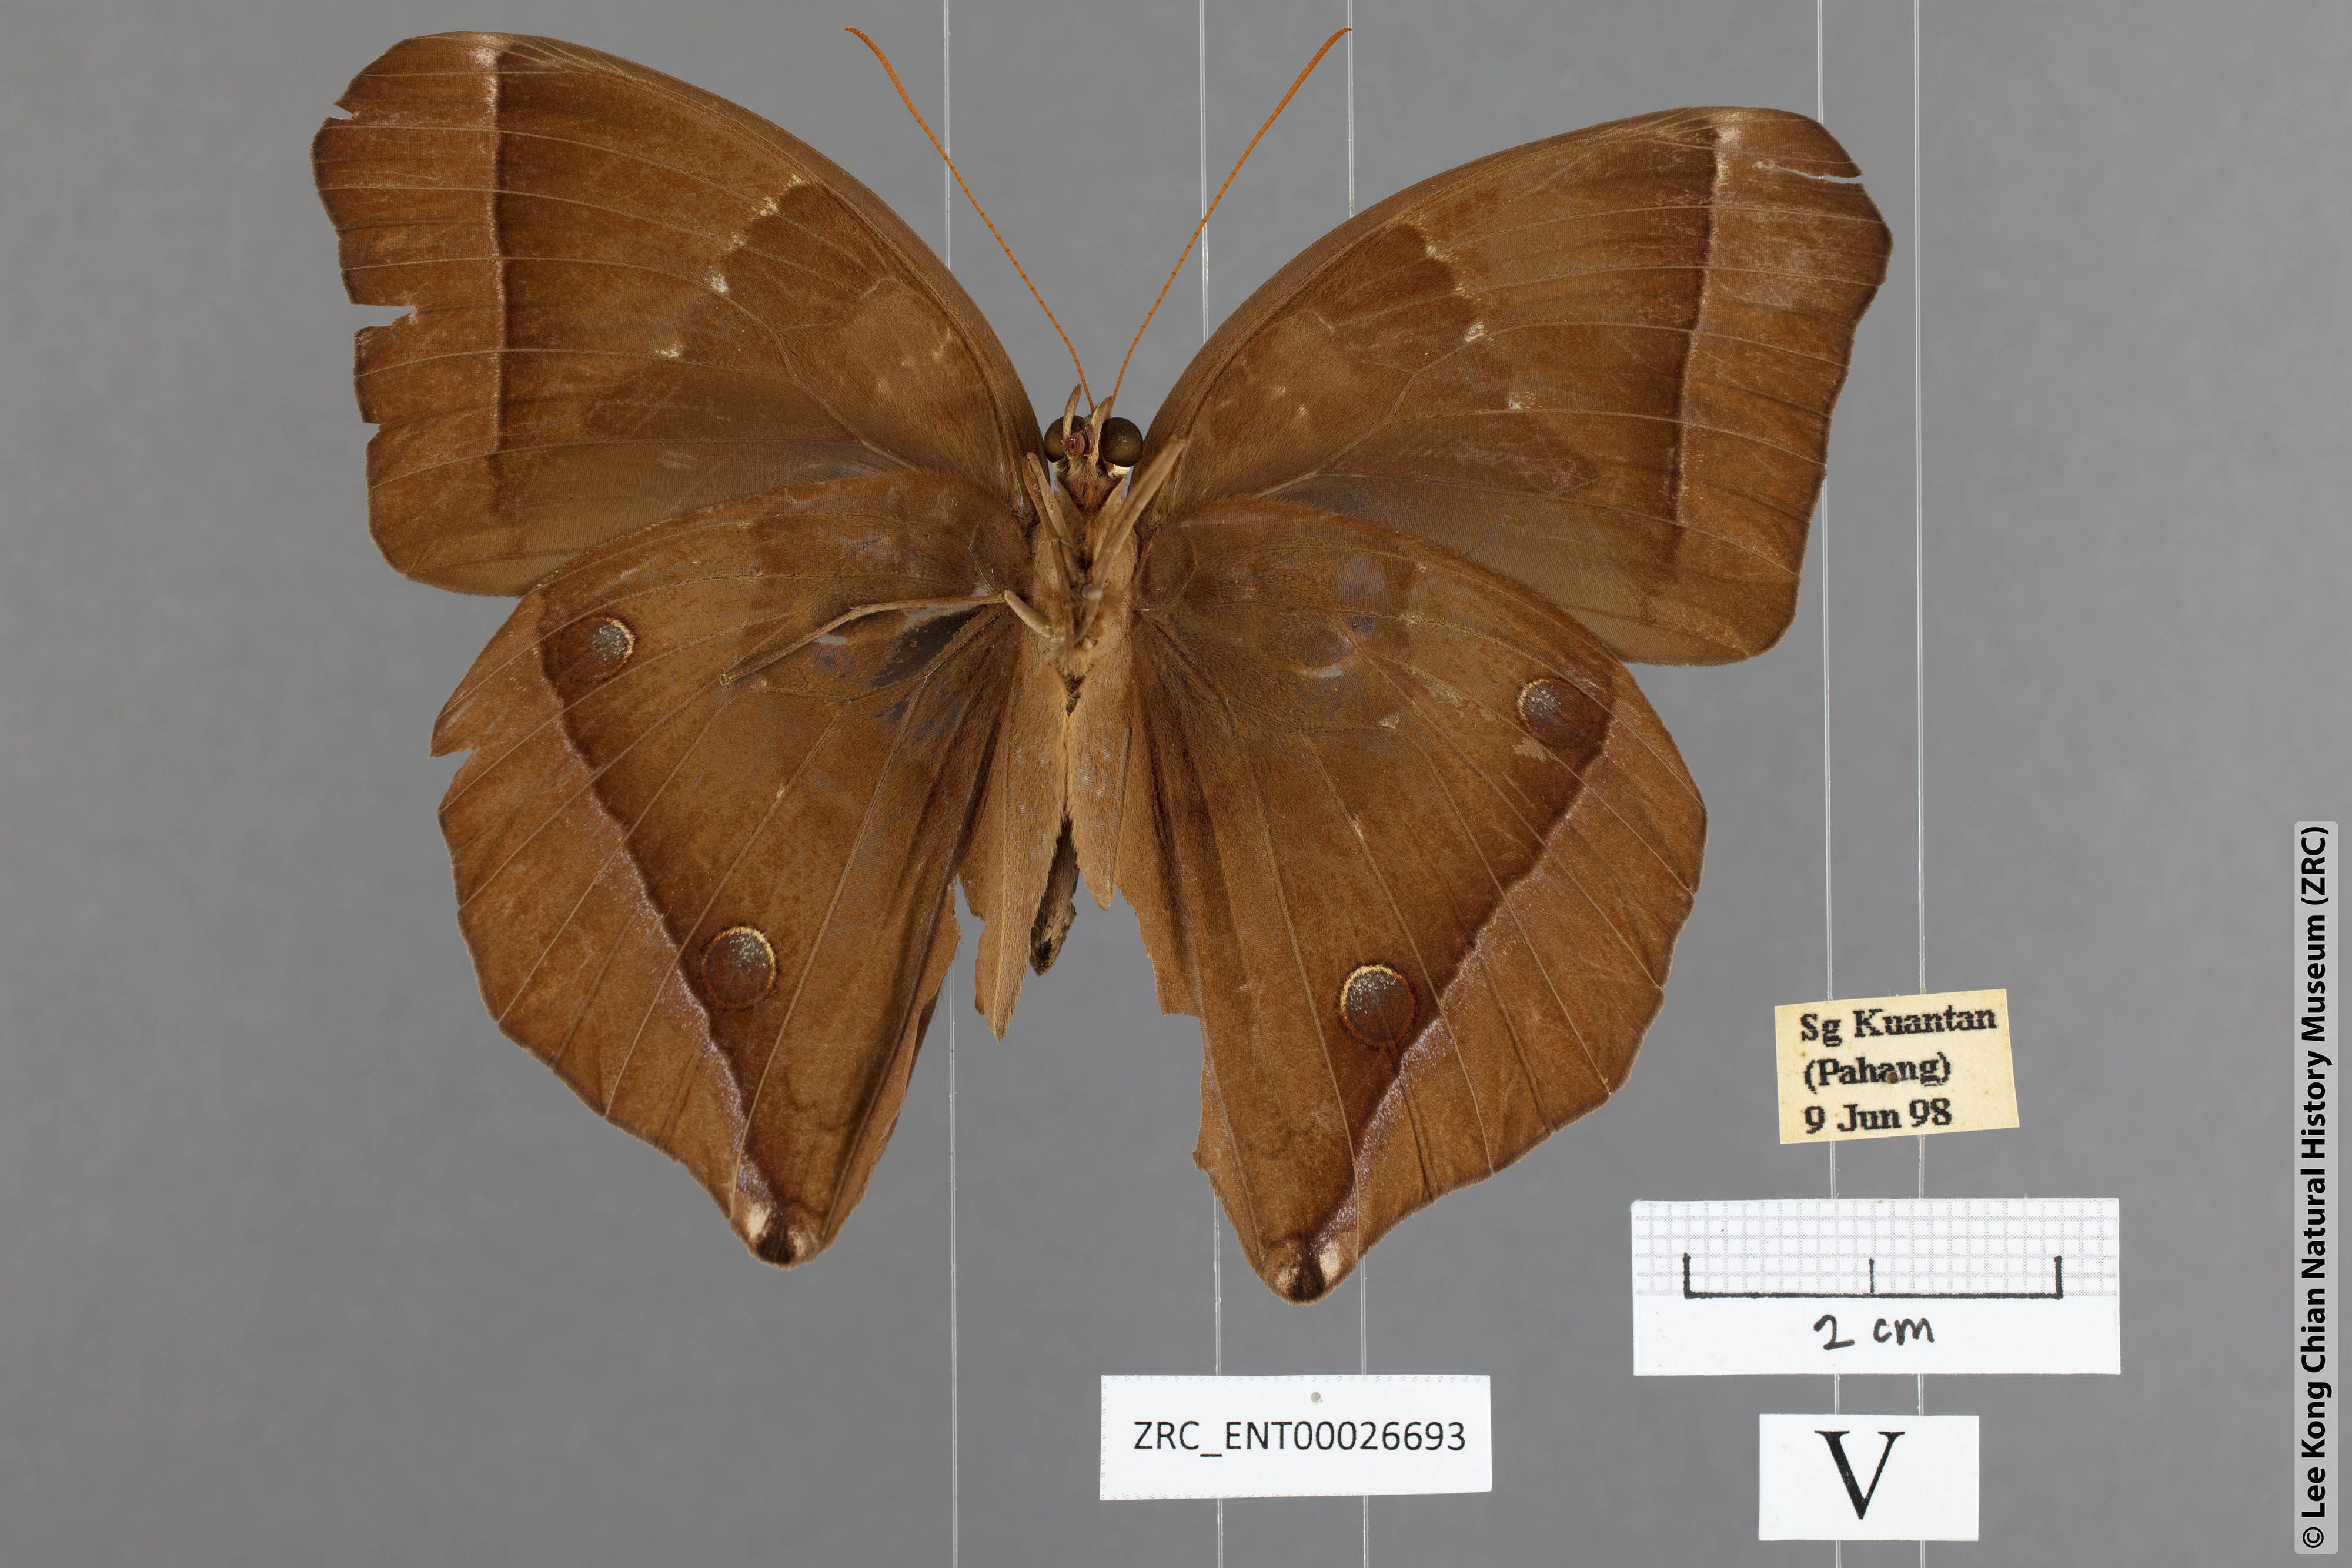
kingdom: Animalia
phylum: Arthropoda
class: Insecta
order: Lepidoptera
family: Nymphalidae
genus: Thaumantis
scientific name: Thaumantis noureddin
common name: Dark jungle glory
